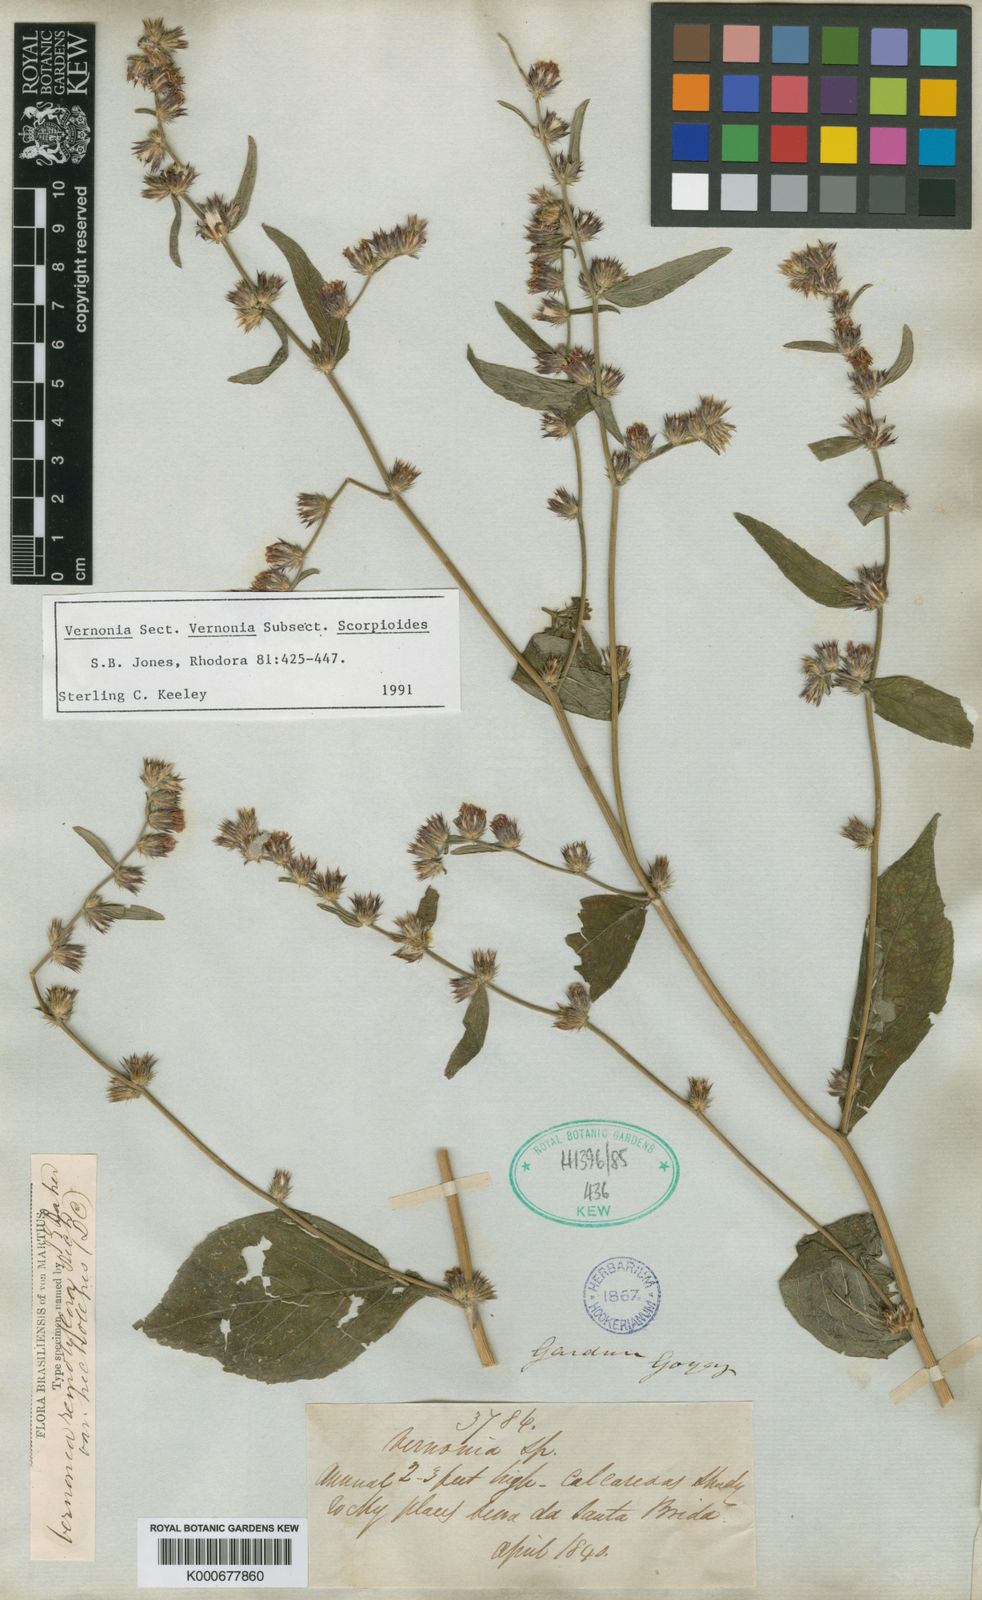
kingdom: Plantae
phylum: Tracheophyta
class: Magnoliopsida
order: Asterales
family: Asteraceae
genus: Lepidaploa
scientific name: Lepidaploa remotiflora
